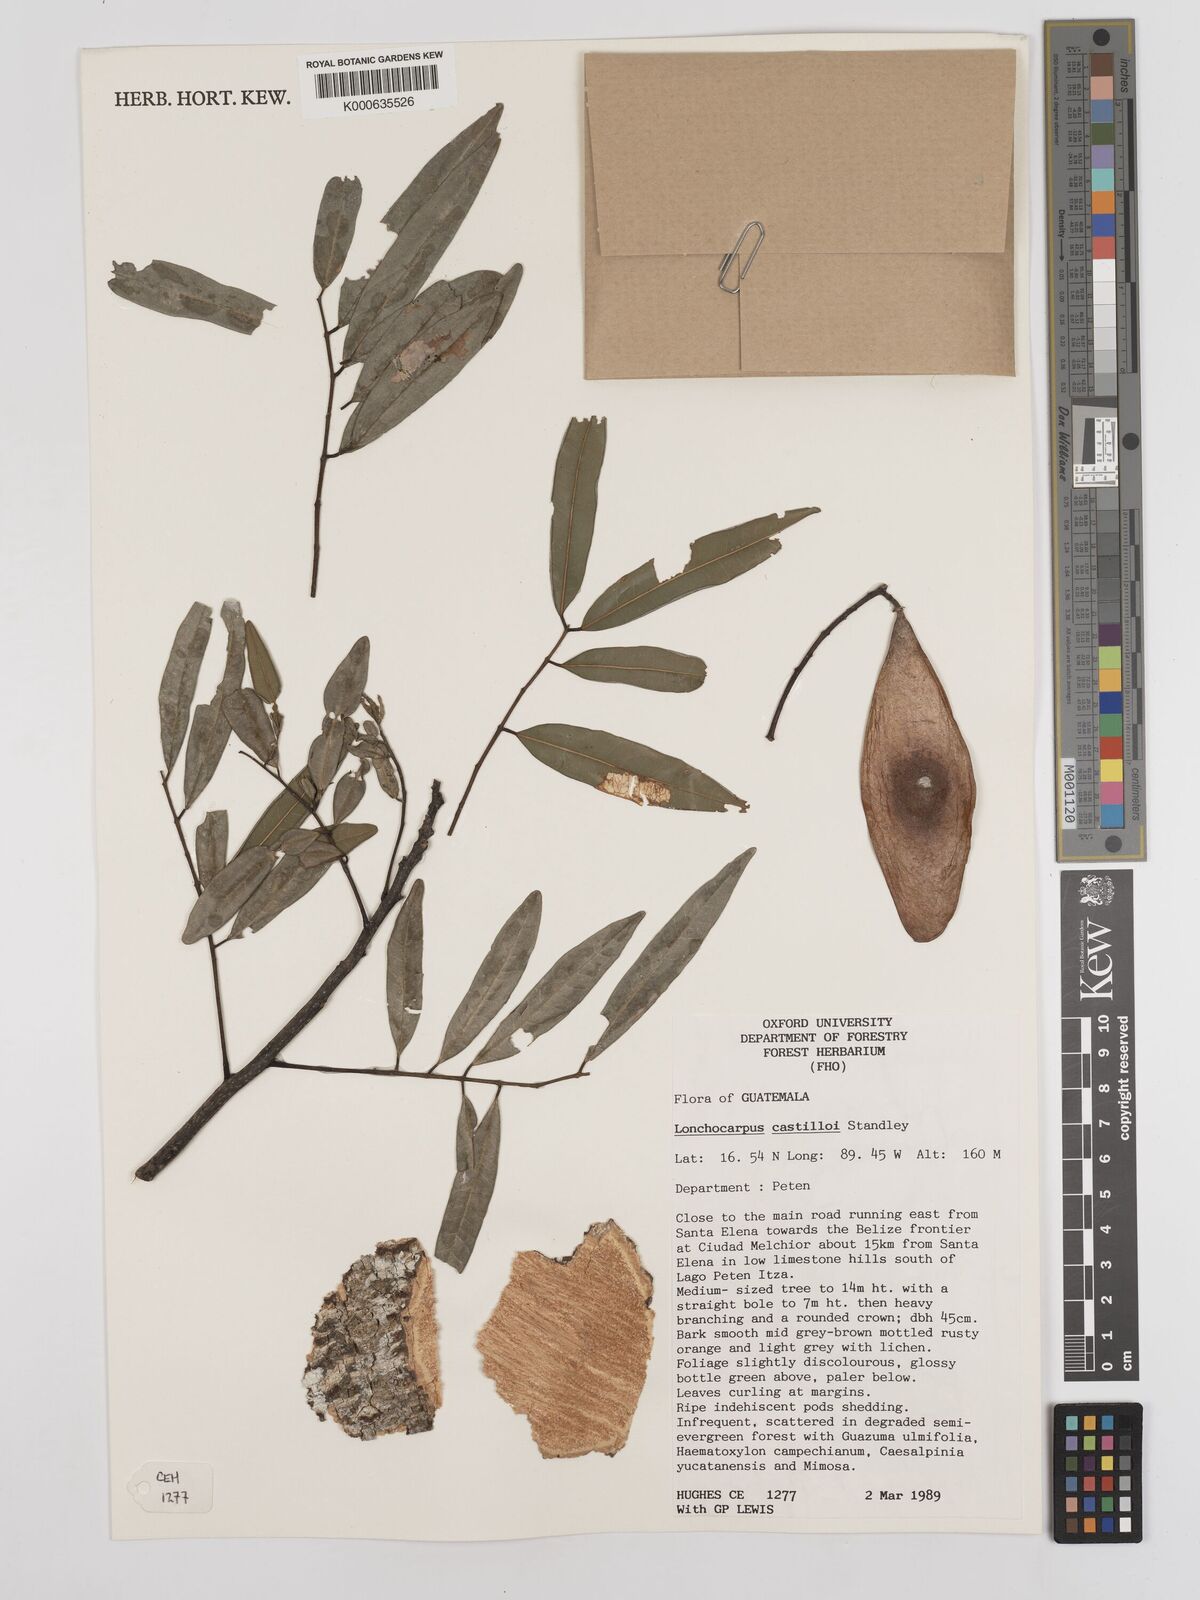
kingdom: Plantae
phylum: Tracheophyta
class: Magnoliopsida
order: Fabales
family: Fabaceae
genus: Lonchocarpus
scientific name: Lonchocarpus castilloi
